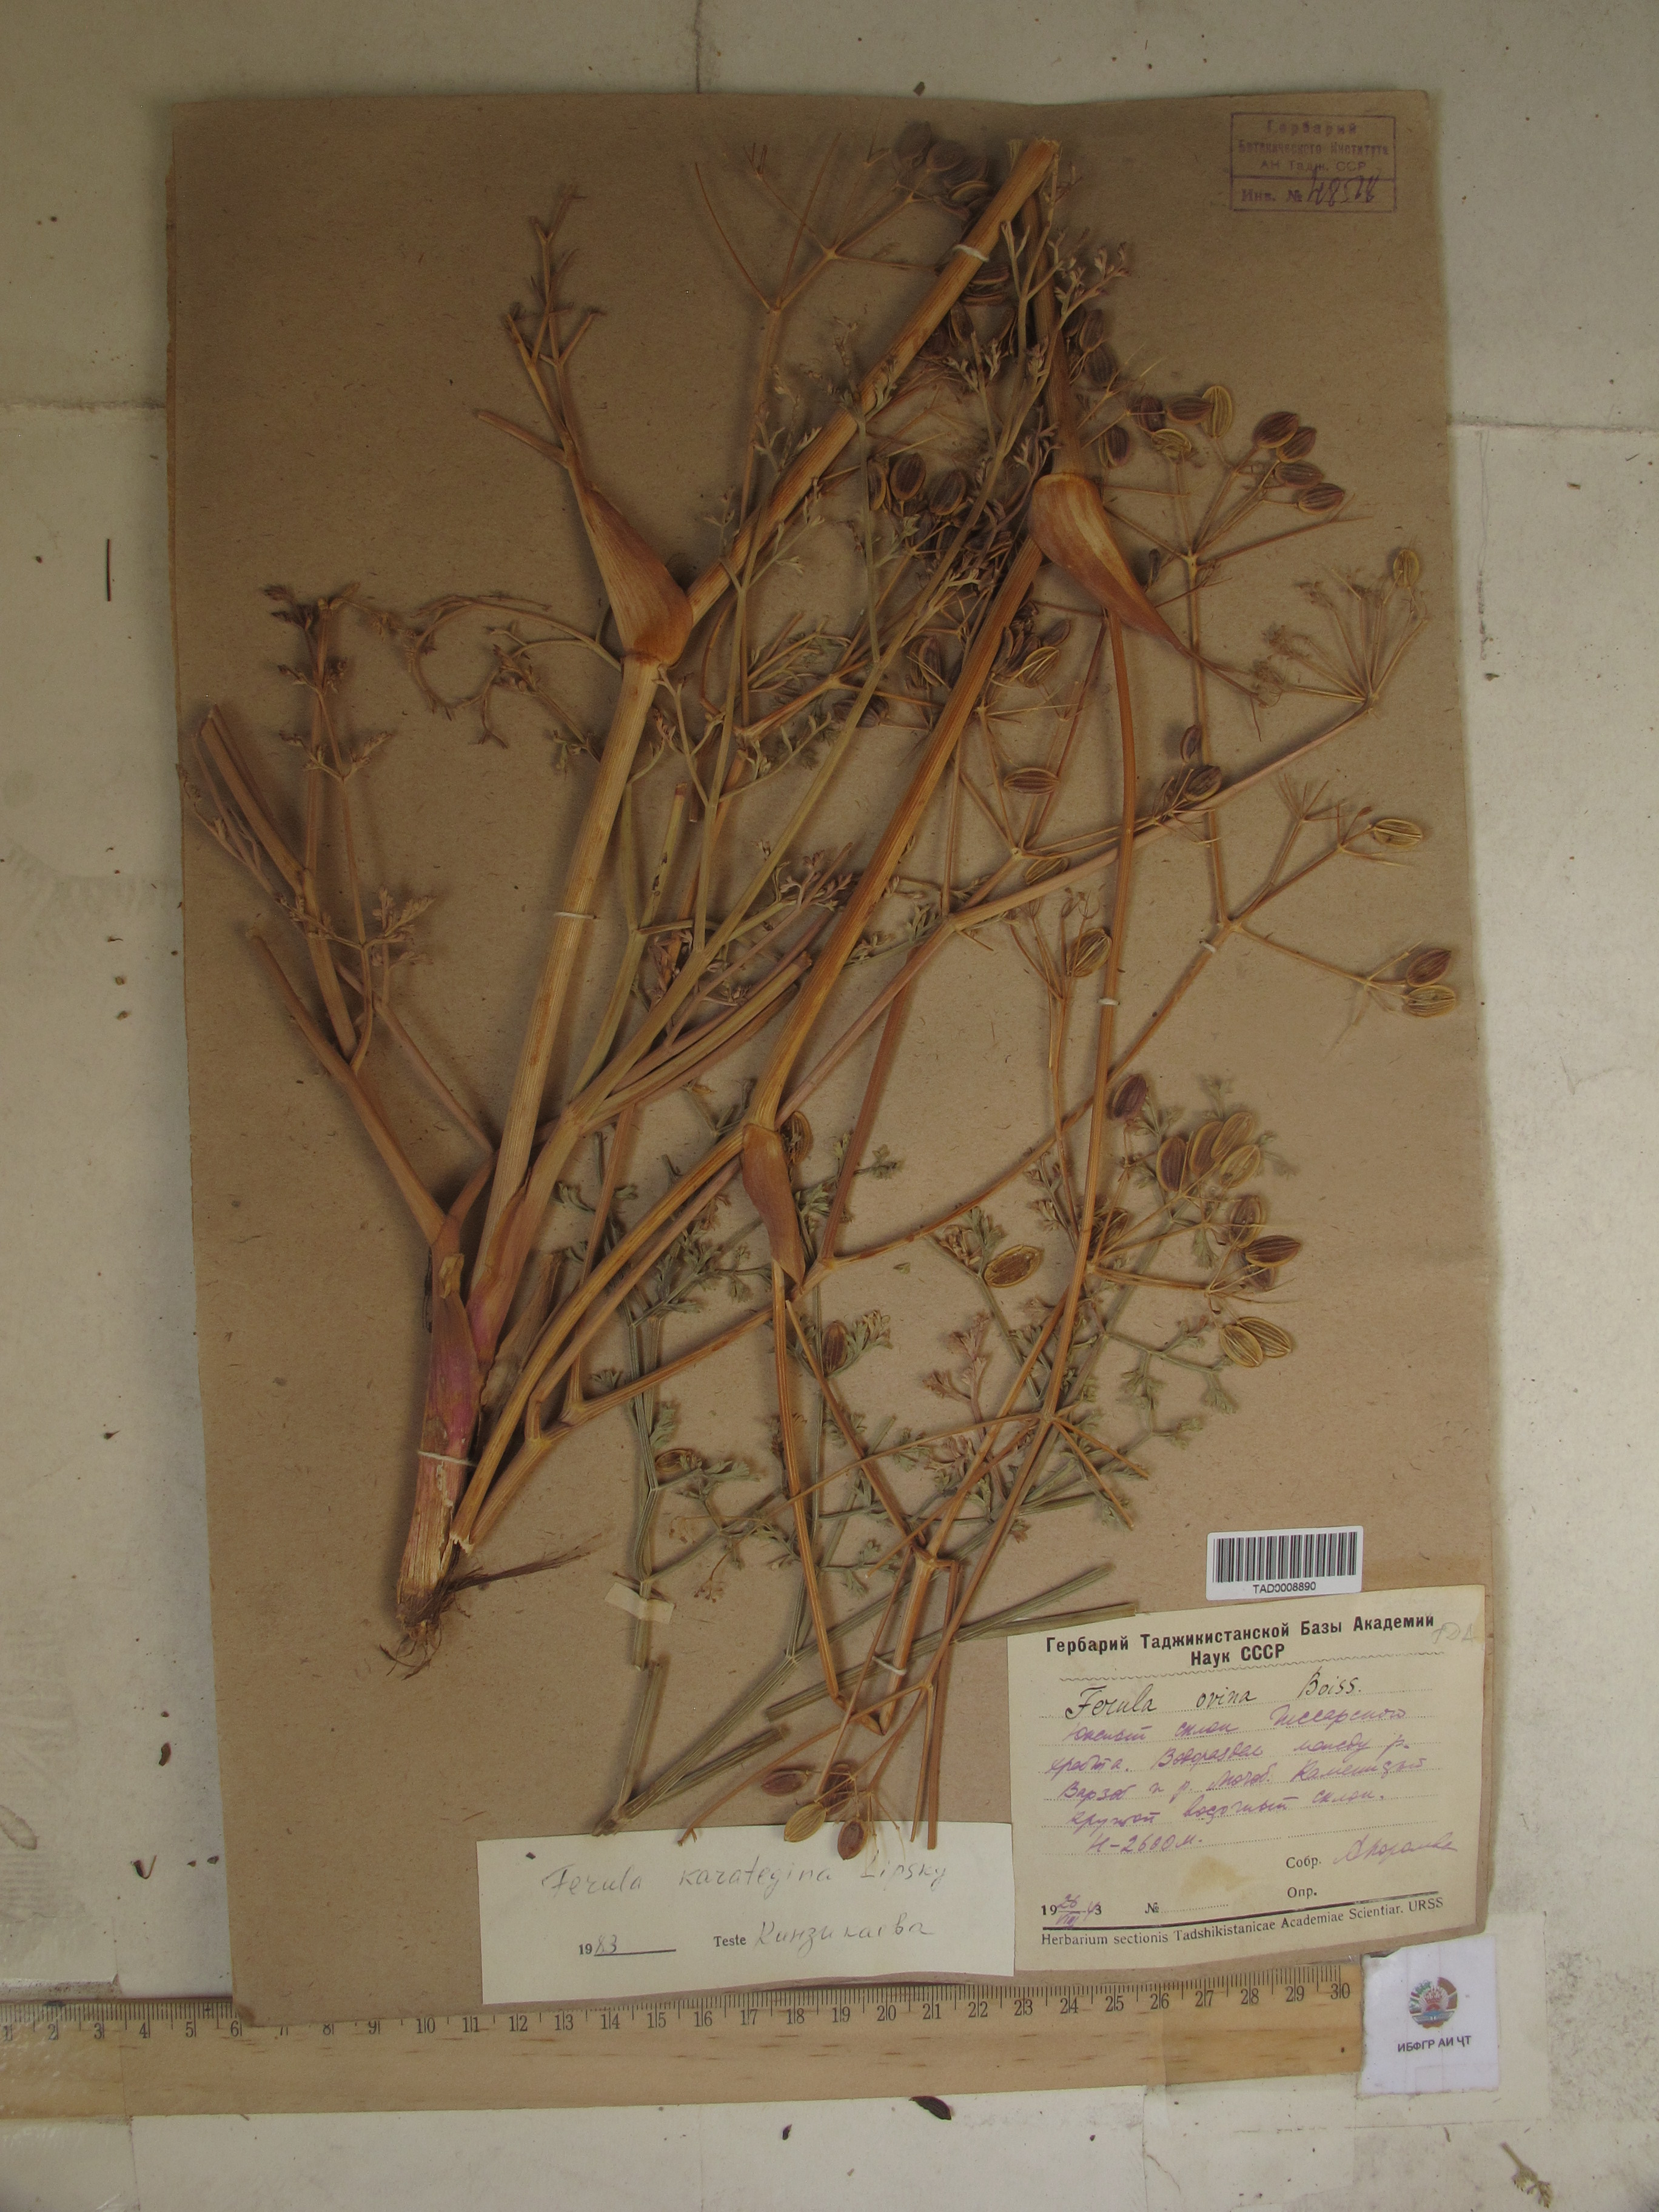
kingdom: Plantae
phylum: Tracheophyta
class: Magnoliopsida
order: Apiales
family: Apiaceae
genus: Ferula
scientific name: Ferula karategina
